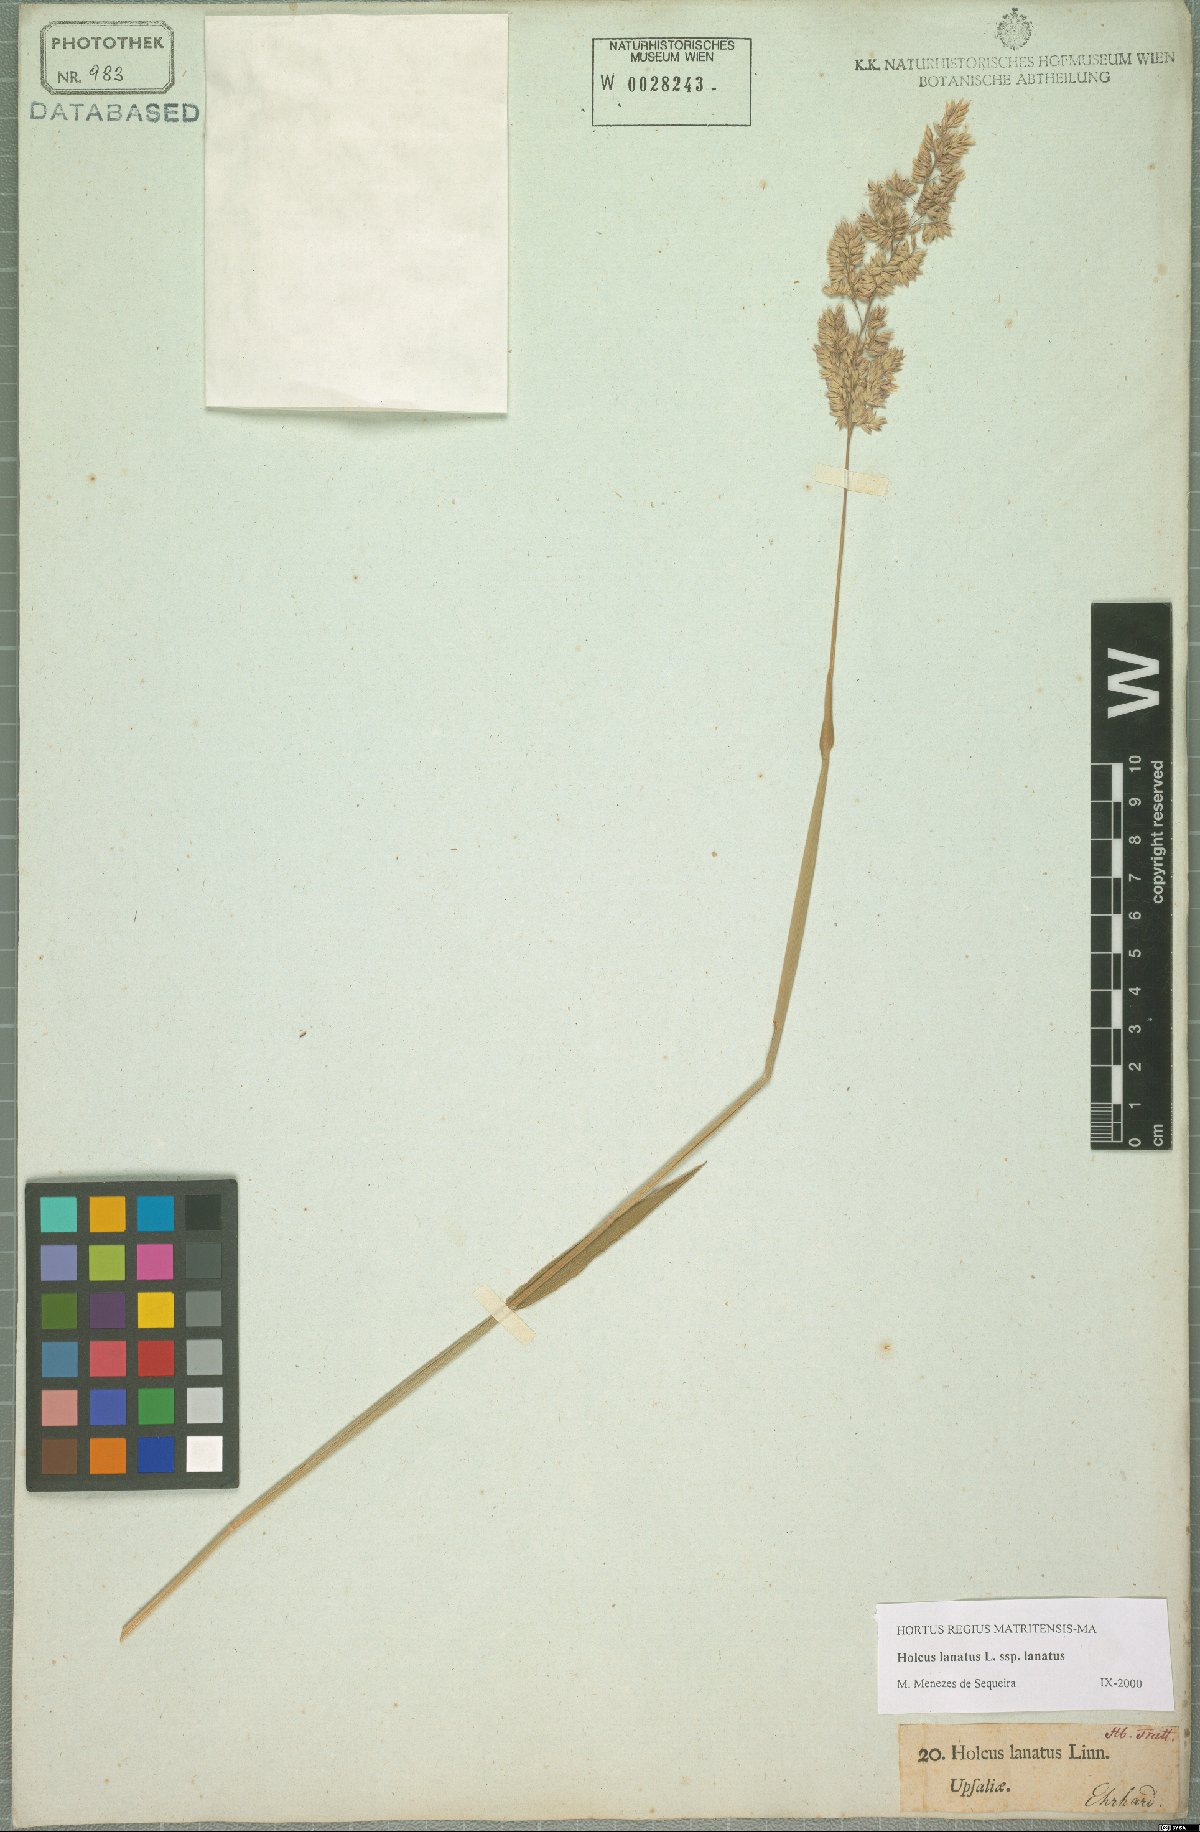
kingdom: Plantae
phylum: Tracheophyta
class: Liliopsida
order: Poales
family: Poaceae
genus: Holcus
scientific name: Holcus lanatus
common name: Yorkshire-fog
